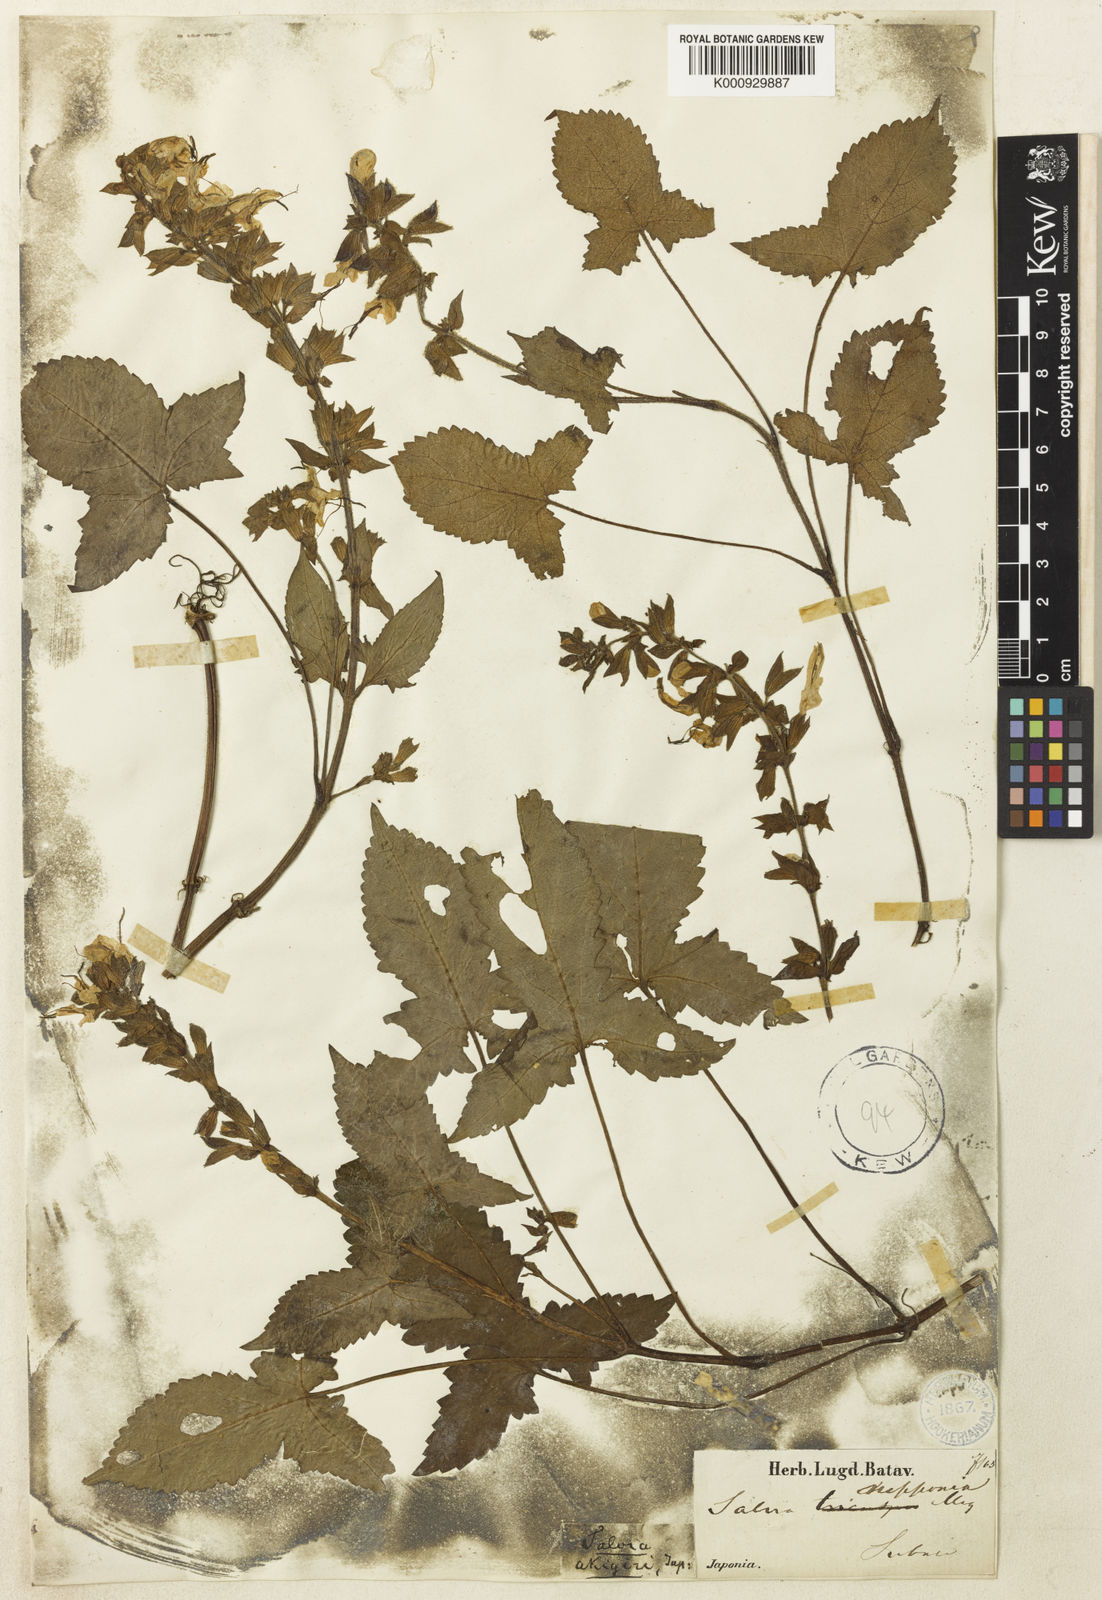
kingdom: Plantae
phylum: Tracheophyta
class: Magnoliopsida
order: Lamiales
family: Lamiaceae
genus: Salvia
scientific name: Salvia nipponica
